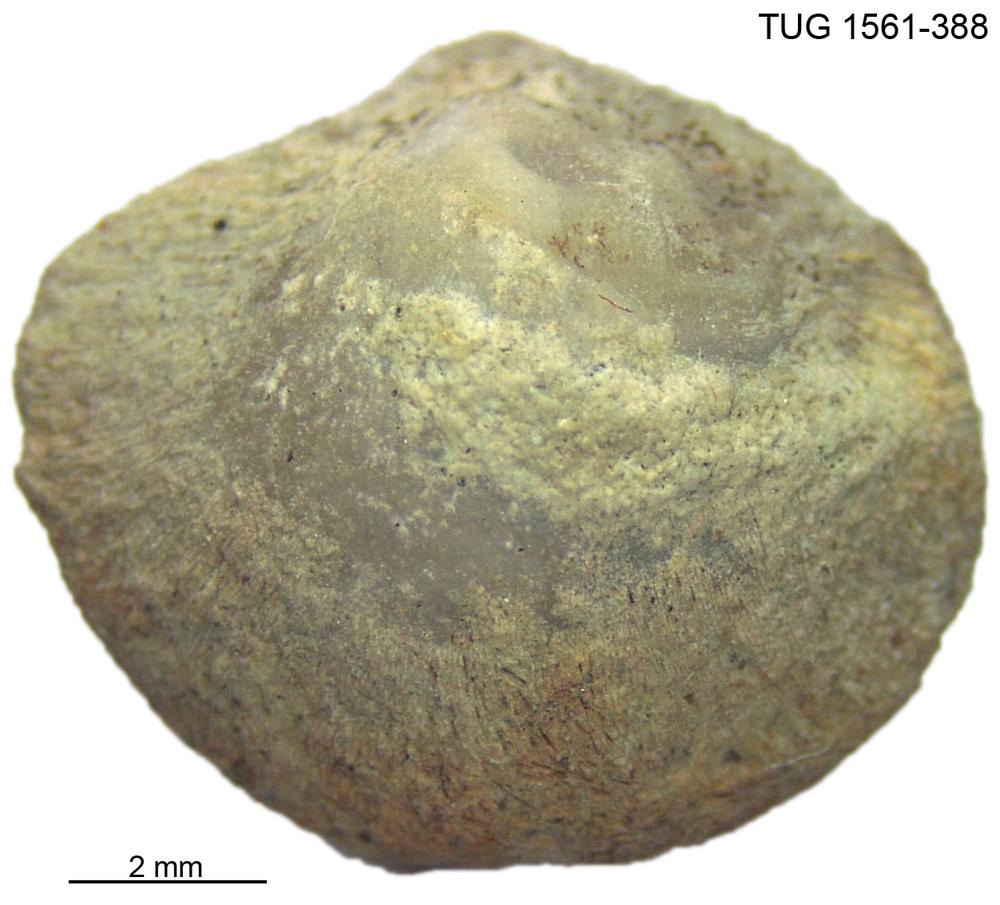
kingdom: Animalia
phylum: Brachiopoda
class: Rhynchonellata
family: Nucleospiridae
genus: Nucleospira
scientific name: Nucleospira Spirifer pisum
